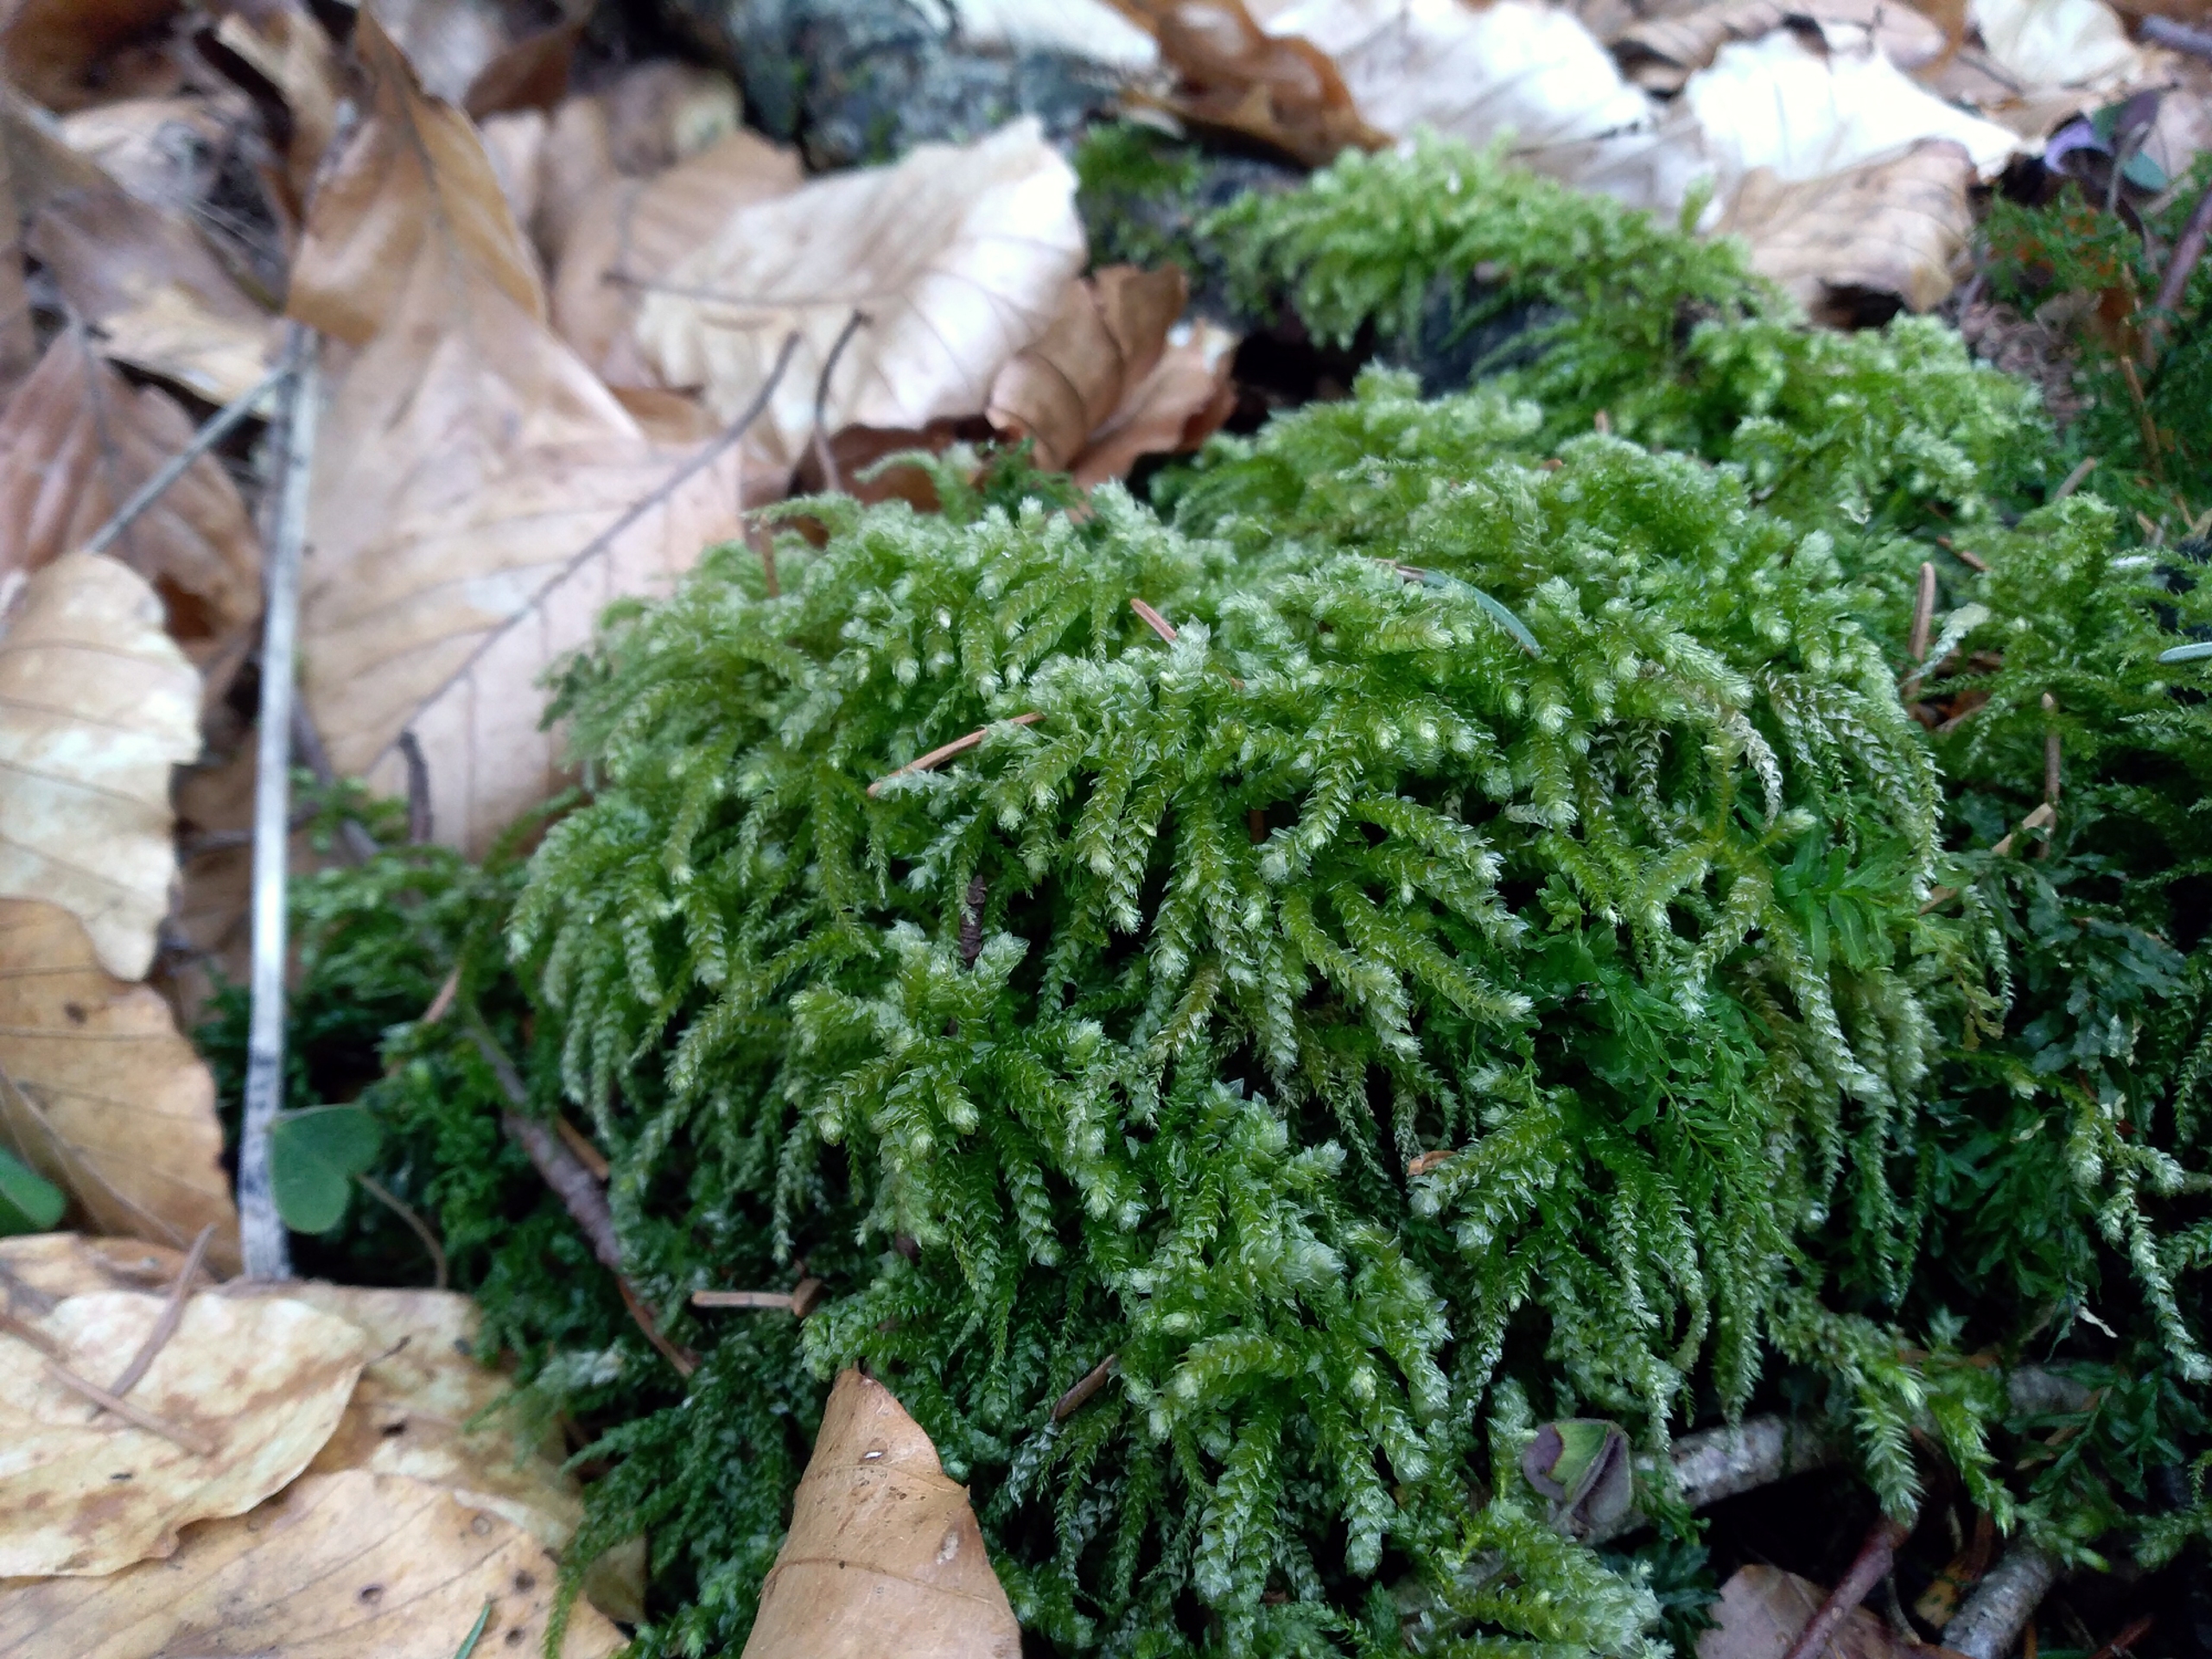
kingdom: Plantae
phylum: Bryophyta
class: Bryopsida
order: Hypnales
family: Brachytheciaceae
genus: Eurhynchium
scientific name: Eurhynchium angustirete
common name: Stor næbmos
